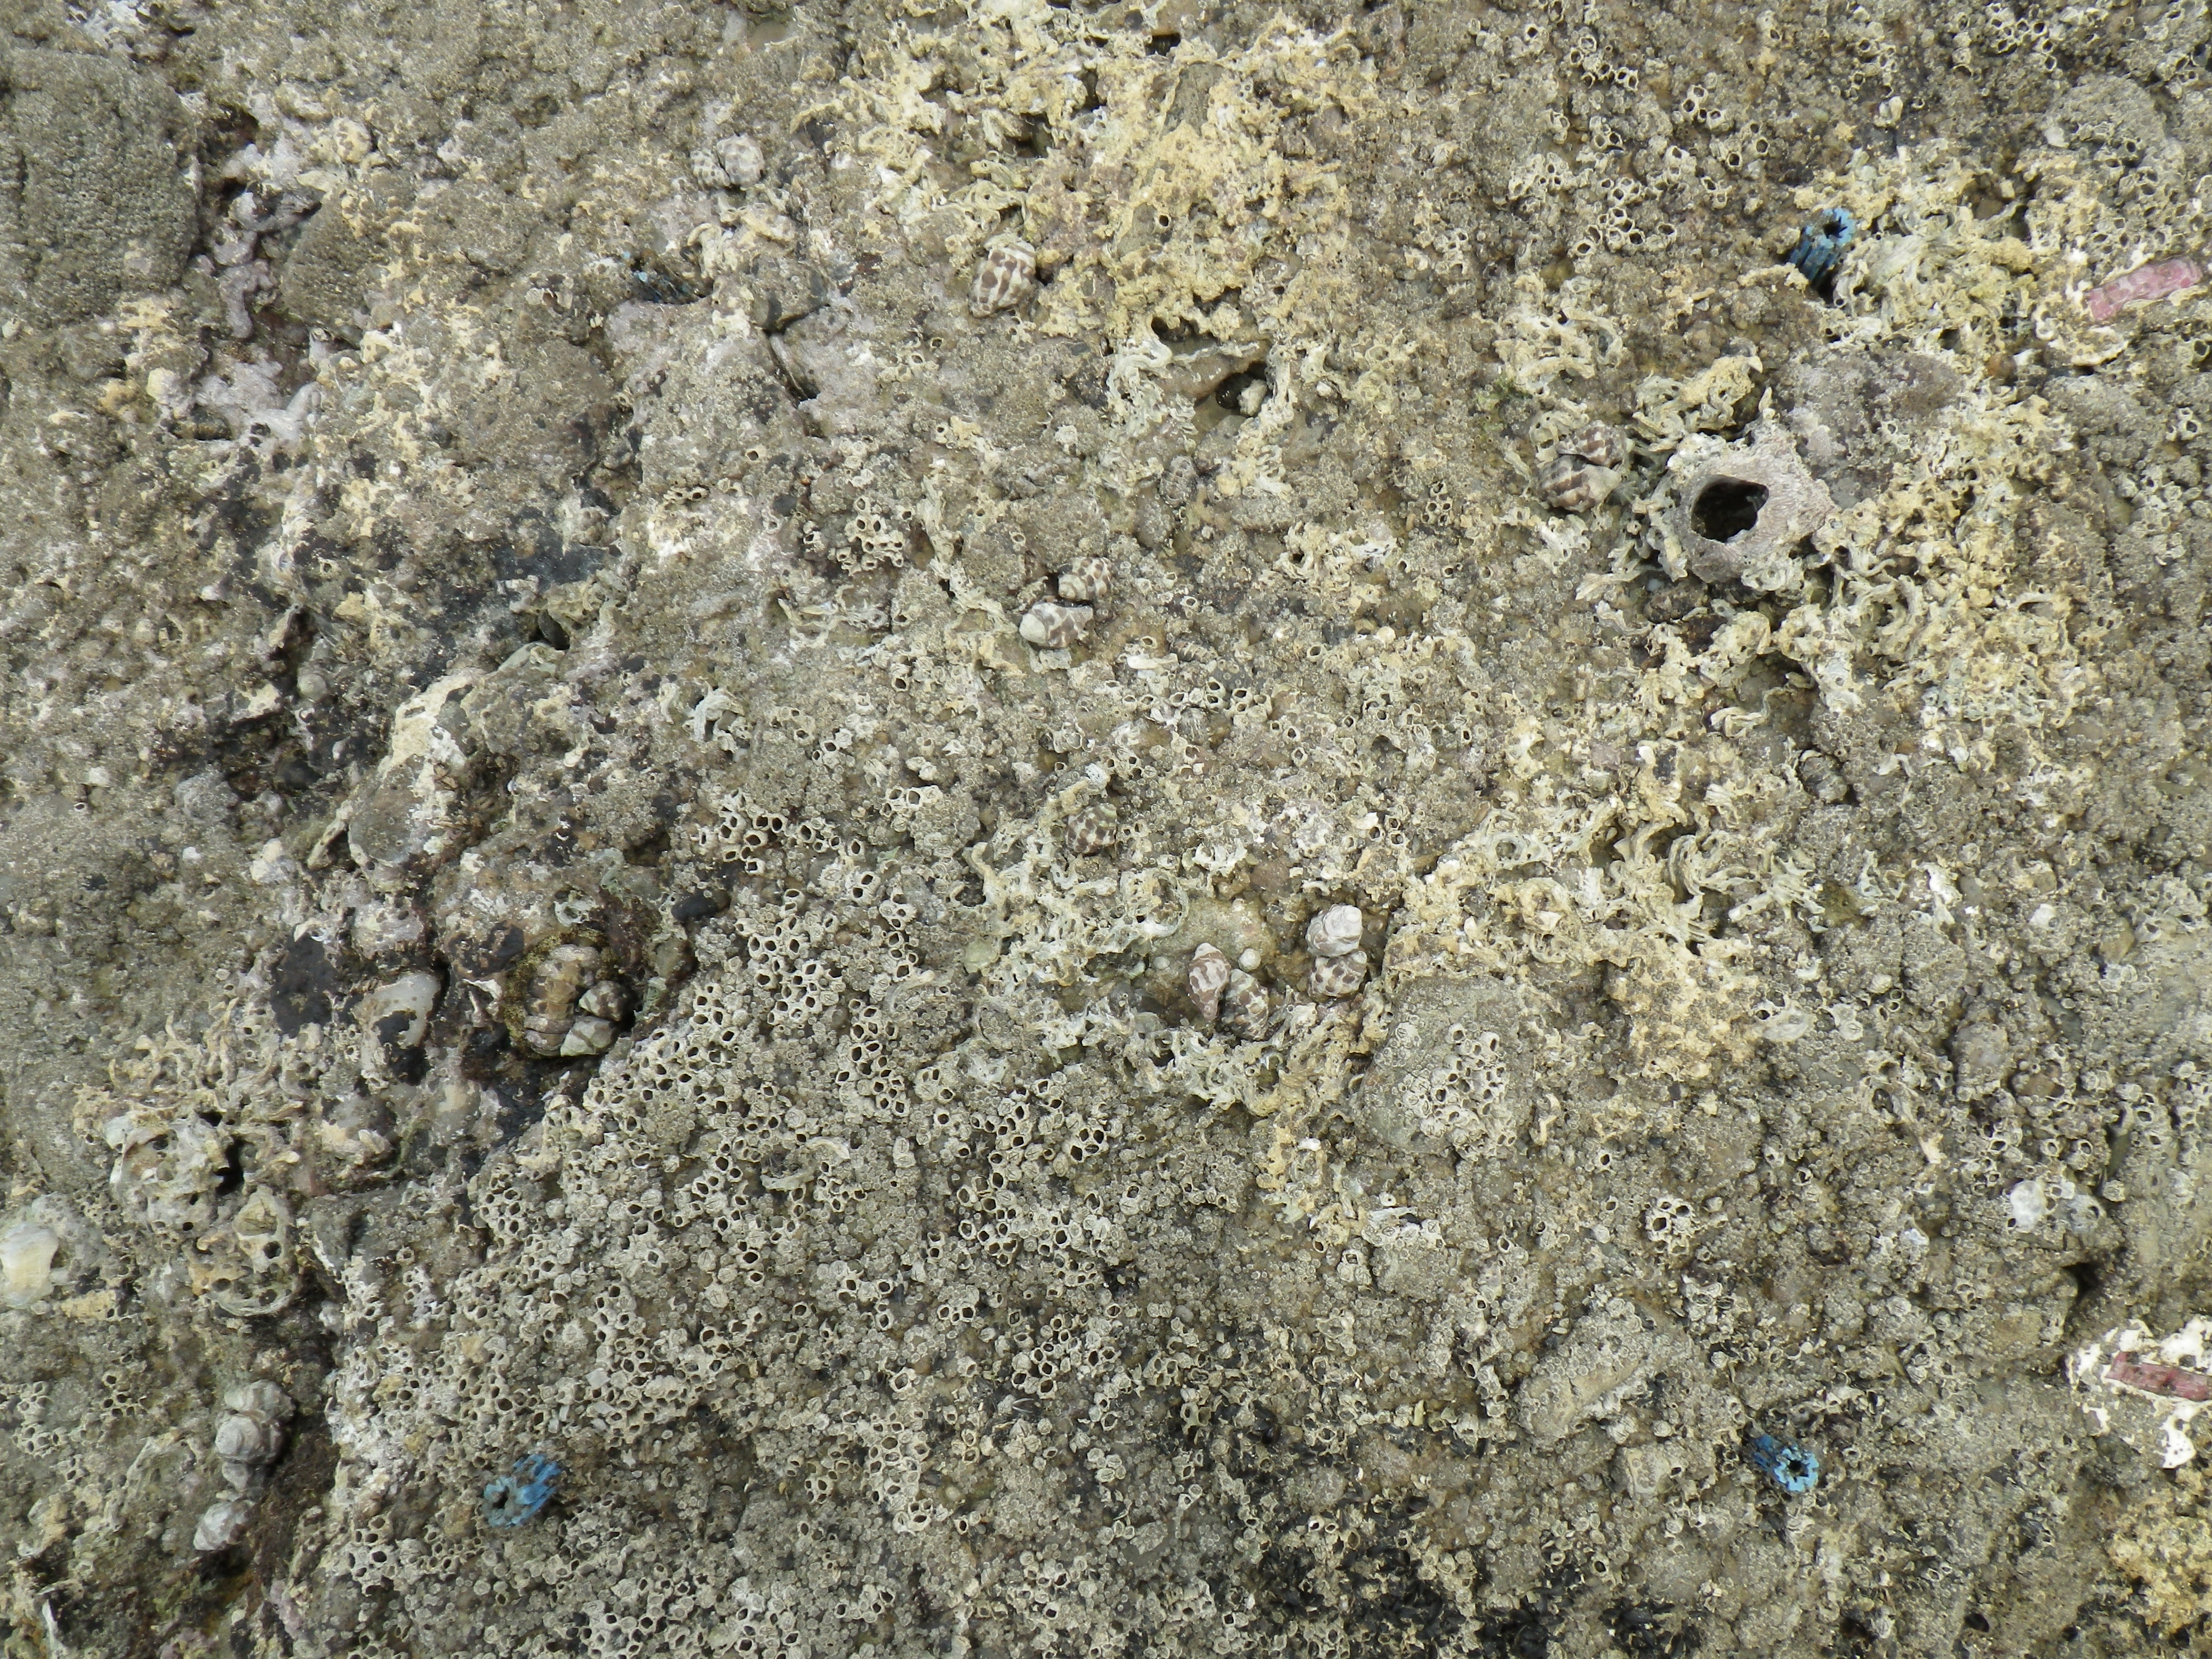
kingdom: Animalia
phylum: Mollusca
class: Bivalvia
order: Mytilida
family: Mytilidae
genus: Brachidontes
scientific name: Brachidontes mutabilis
